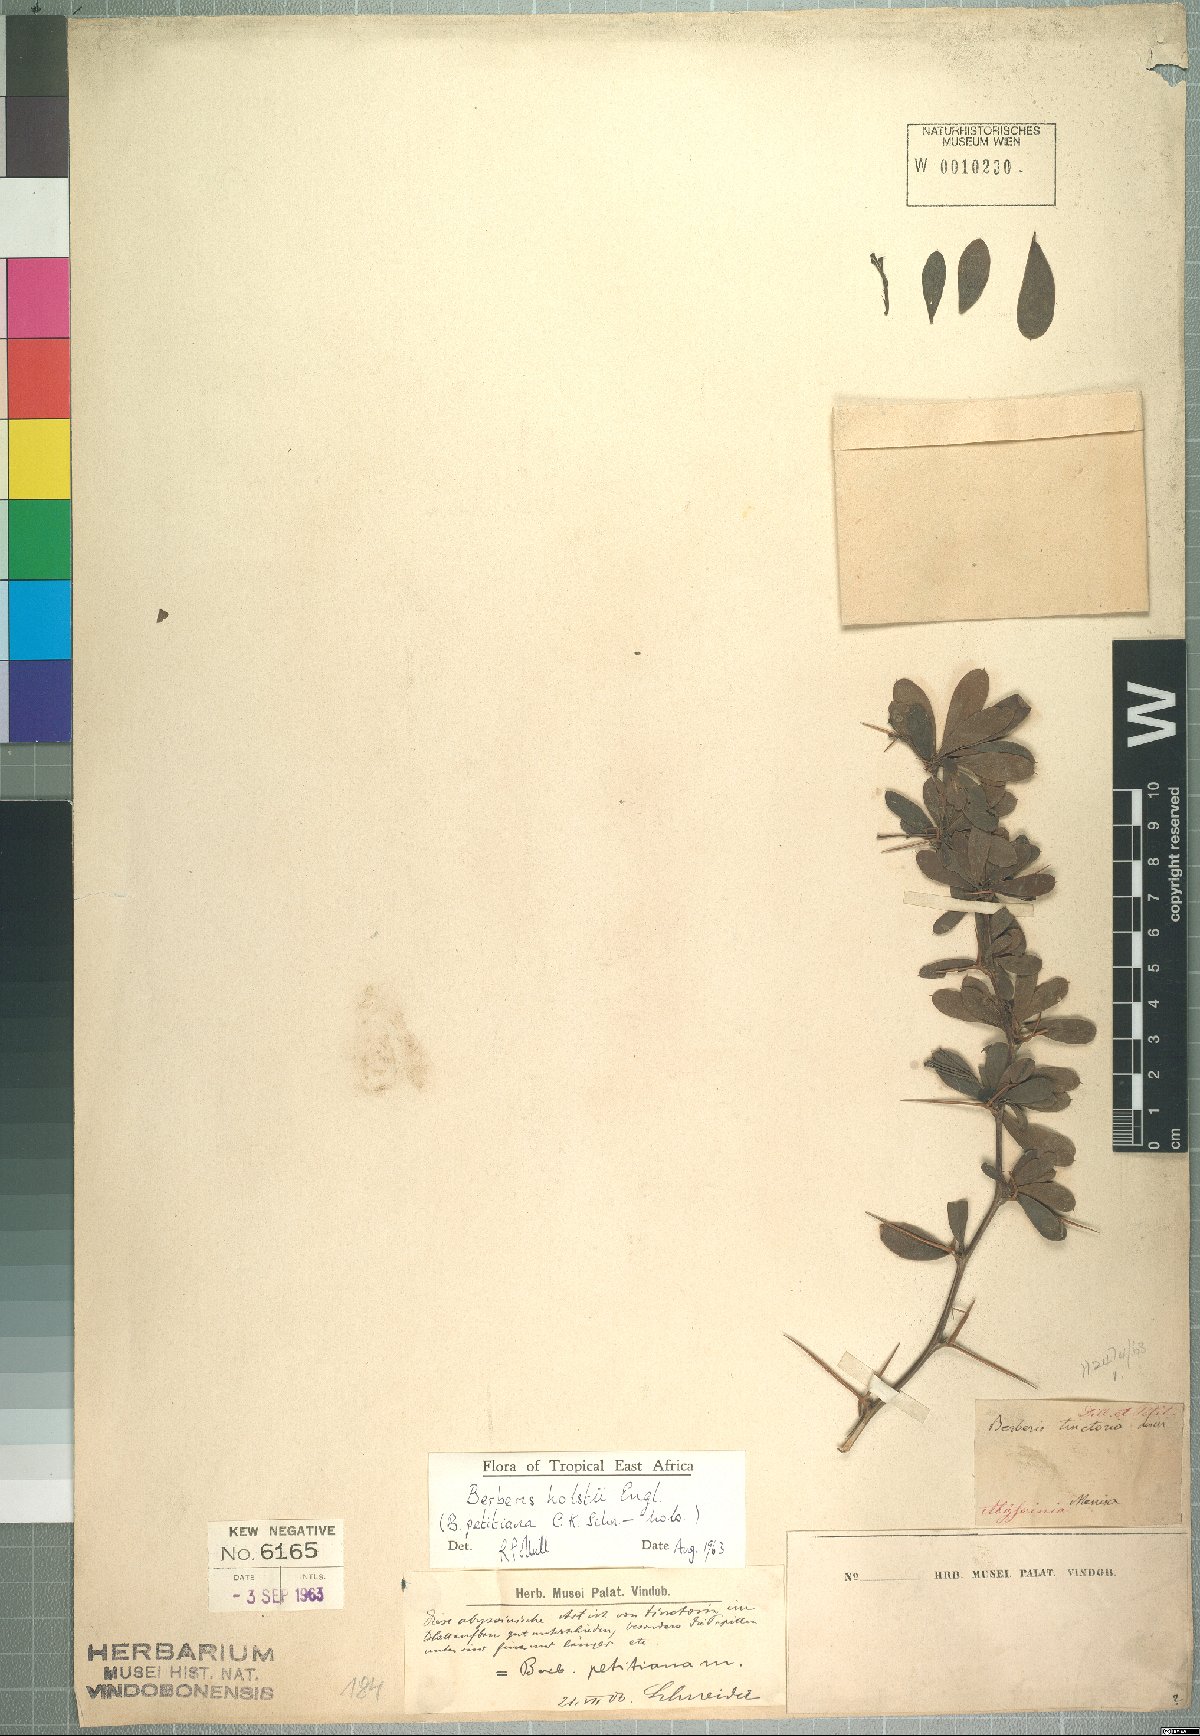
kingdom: Plantae
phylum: Tracheophyta
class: Magnoliopsida
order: Ranunculales
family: Berberidaceae
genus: Berberis
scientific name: Berberis holstii
